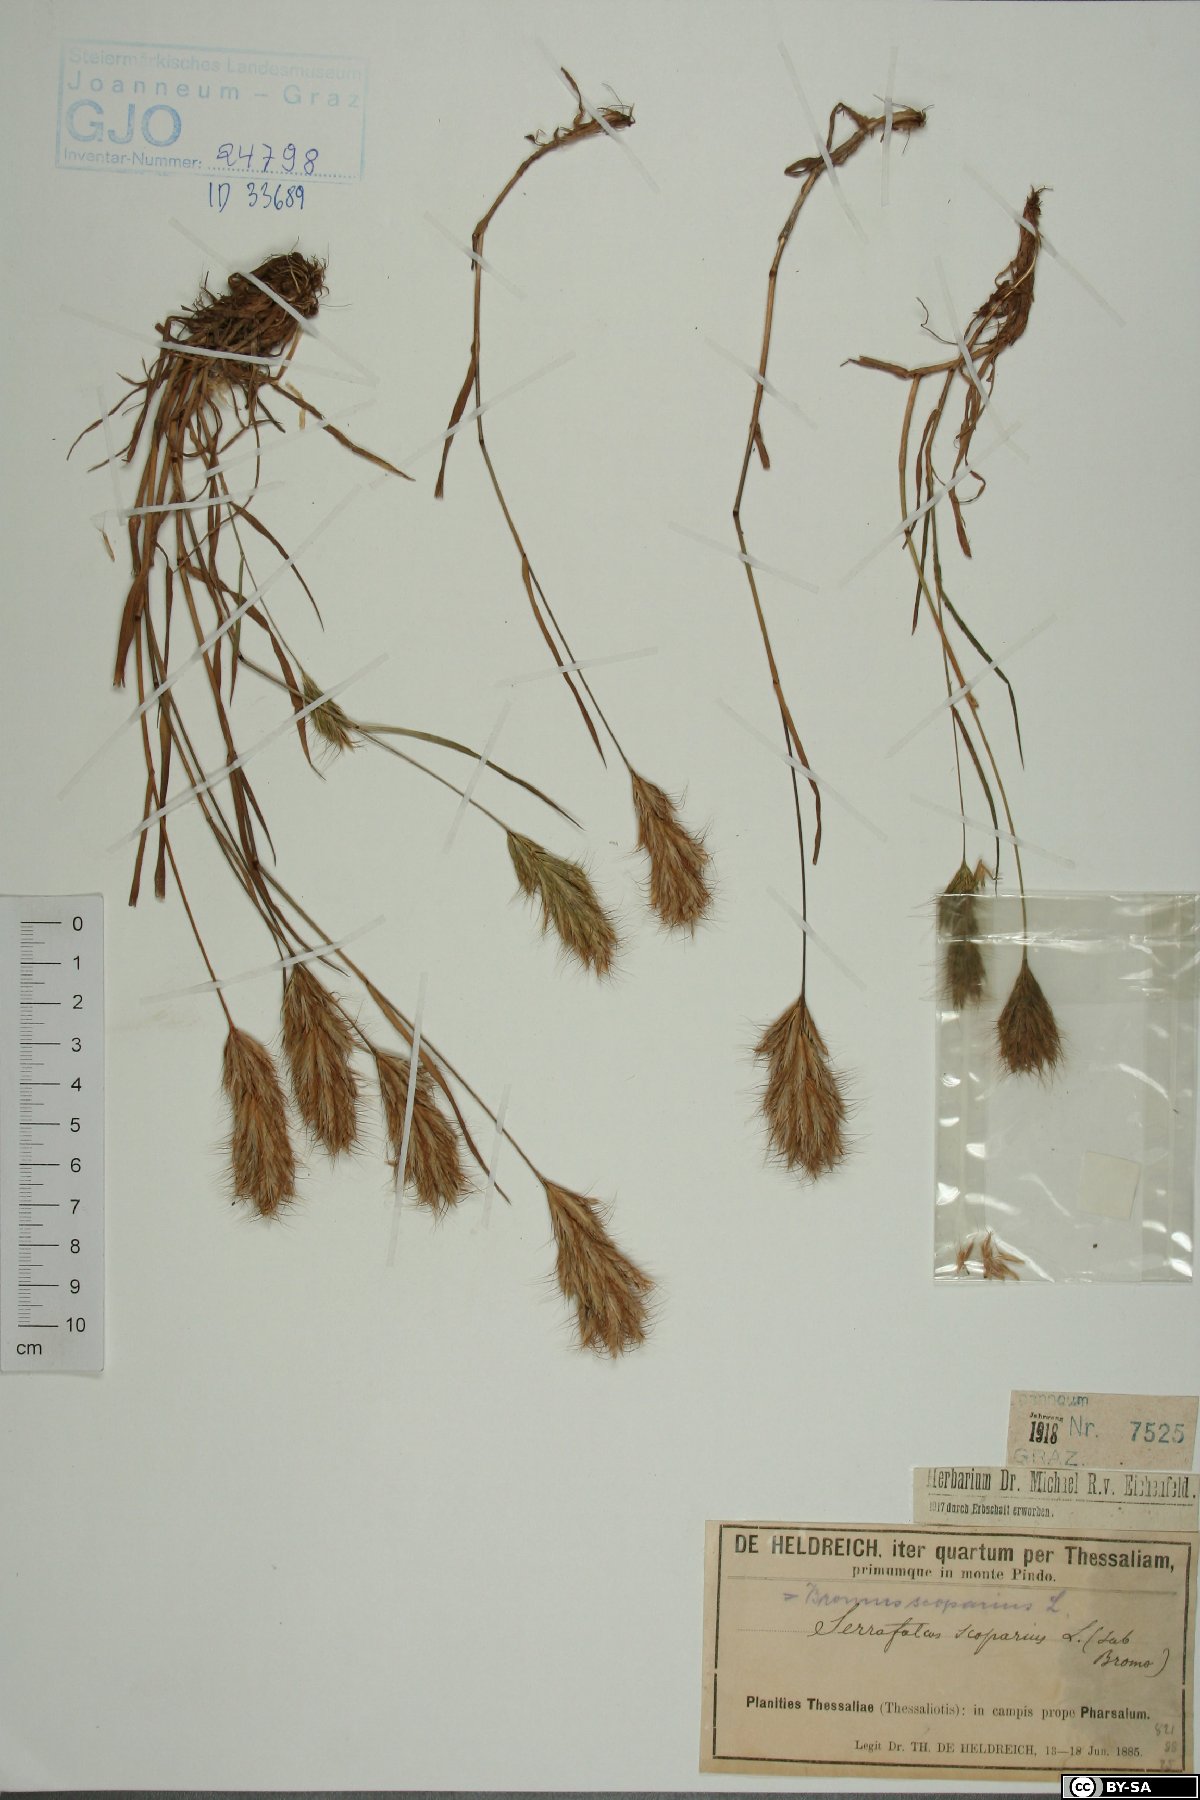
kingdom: Plantae
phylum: Tracheophyta
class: Liliopsida
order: Poales
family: Poaceae
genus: Bromus
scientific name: Bromus scoparius
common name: Broom brome
